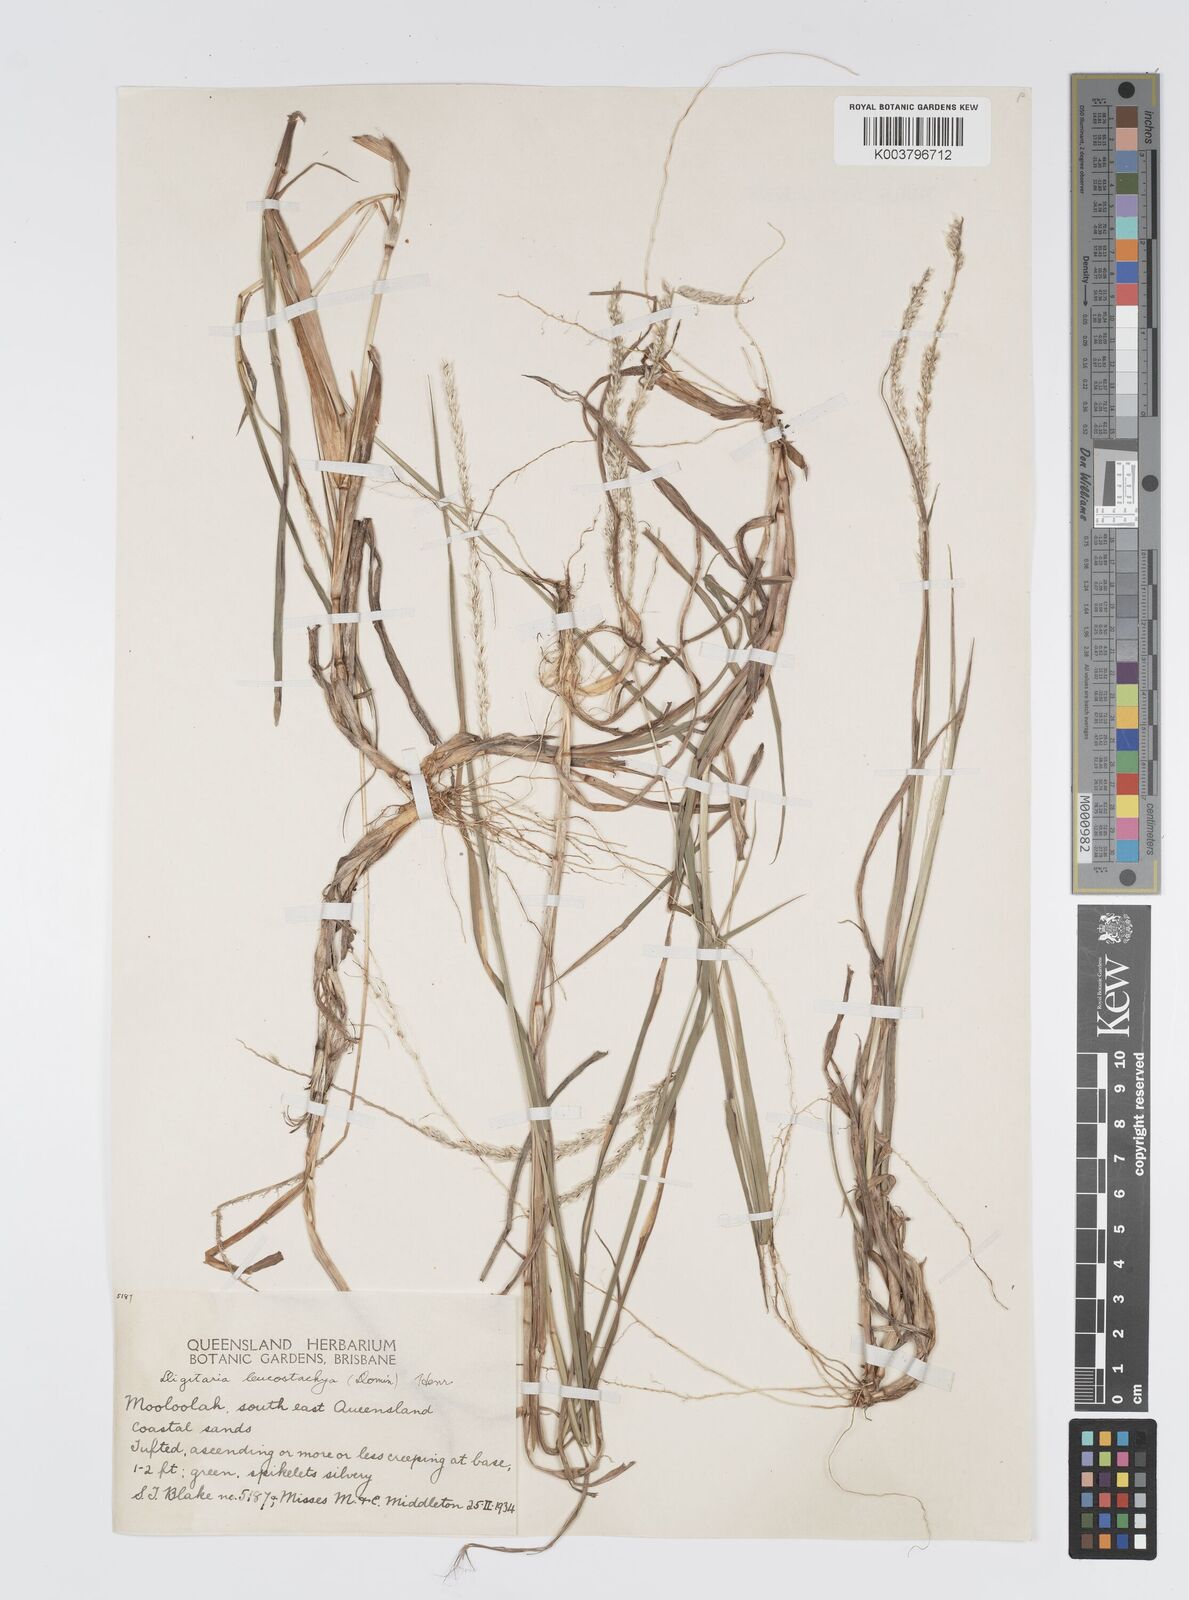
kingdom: Plantae
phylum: Tracheophyta
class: Liliopsida
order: Poales
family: Poaceae
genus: Digitaria
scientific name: Digitaria leucostachya
